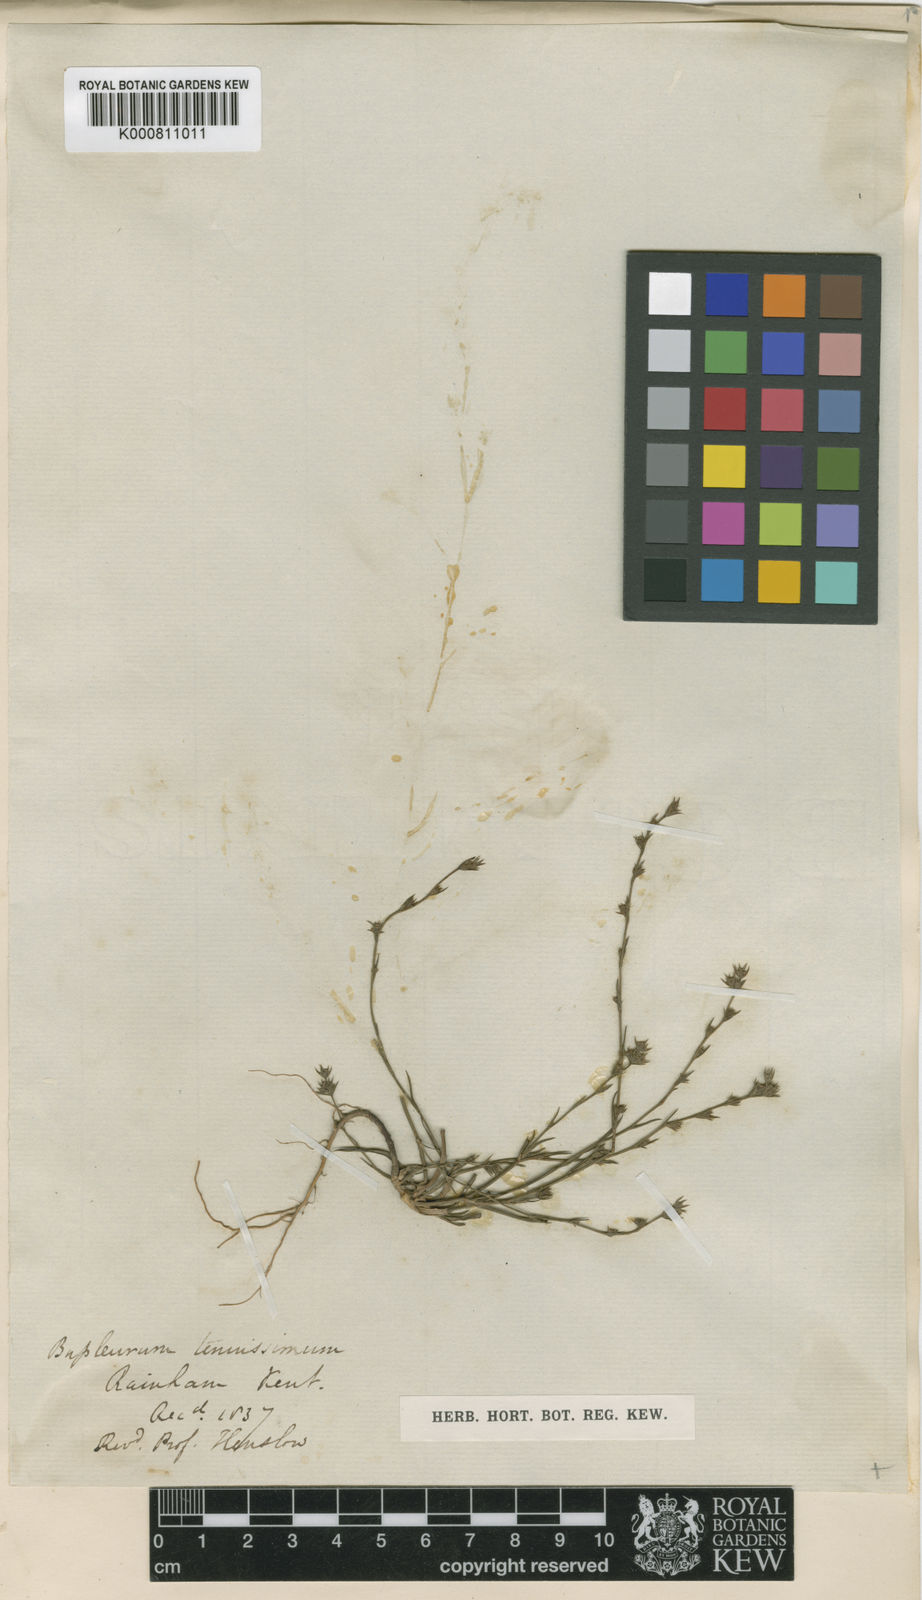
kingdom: Plantae
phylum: Tracheophyta
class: Magnoliopsida
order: Apiales
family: Apiaceae
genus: Bupleurum
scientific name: Bupleurum tenuissimum
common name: Slender hare's-ear
